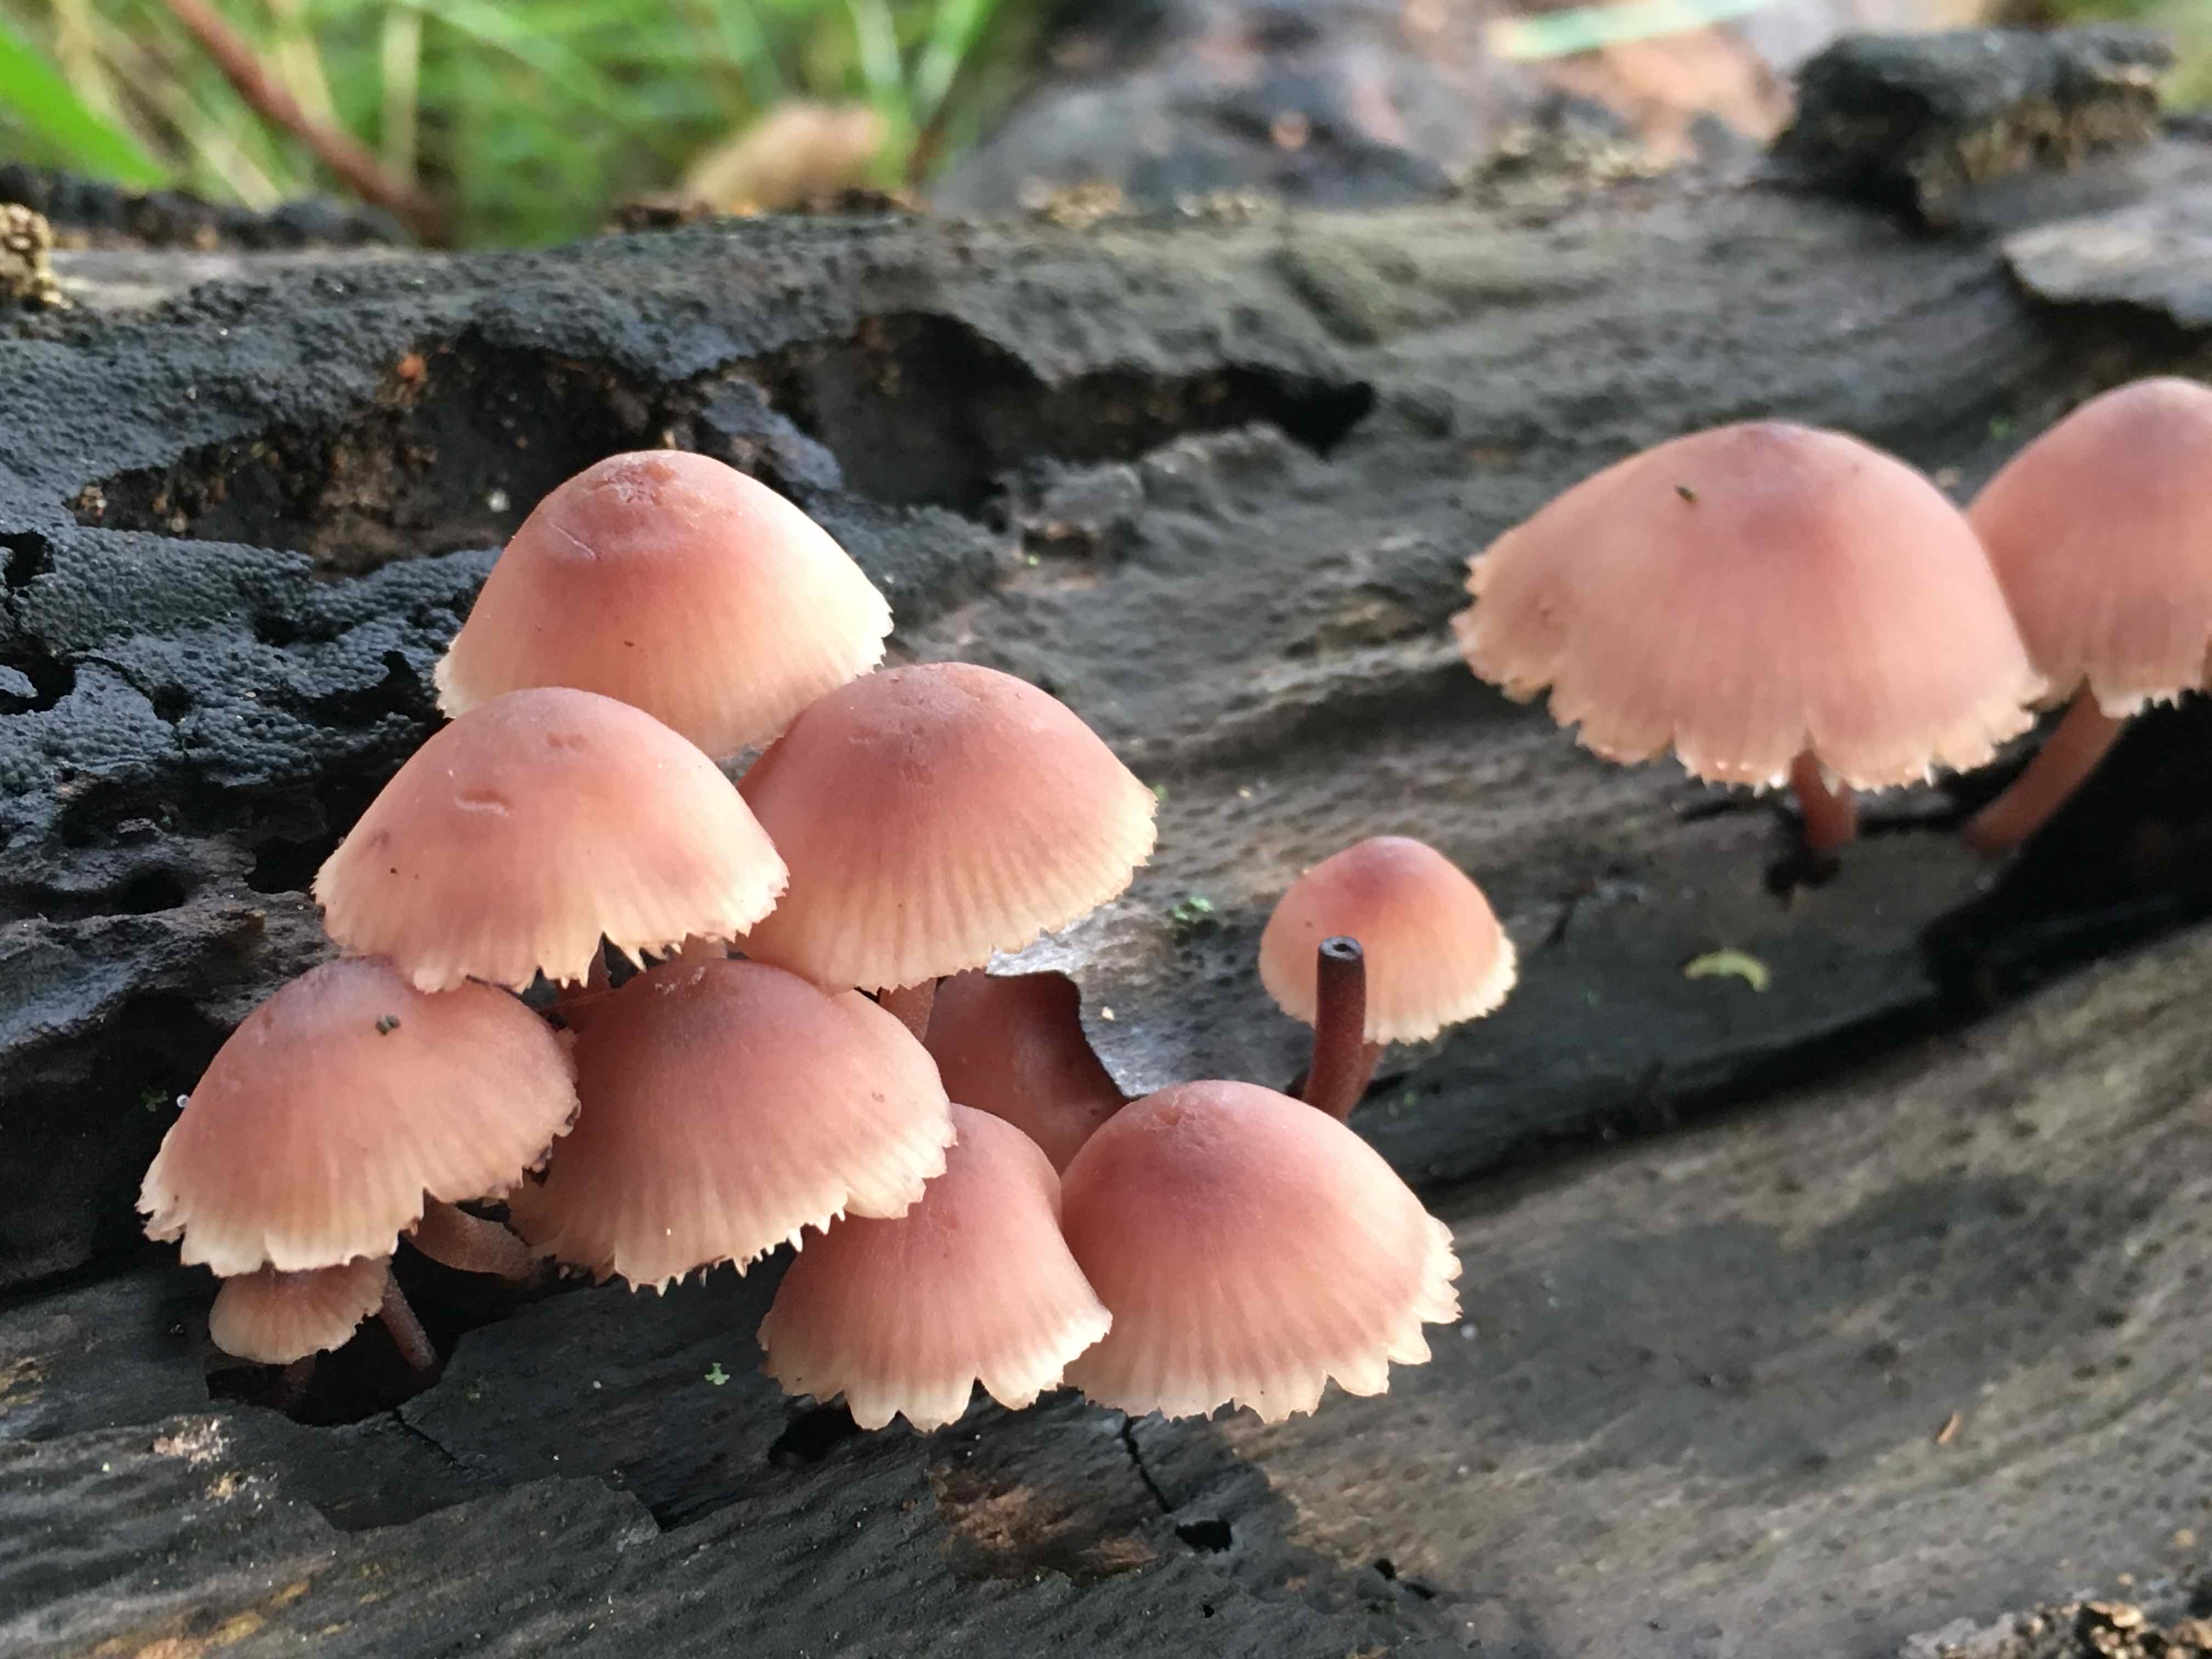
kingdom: Fungi
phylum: Basidiomycota
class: Agaricomycetes
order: Agaricales
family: Mycenaceae
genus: Mycena
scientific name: Mycena haematopus
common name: blødende huesvamp
